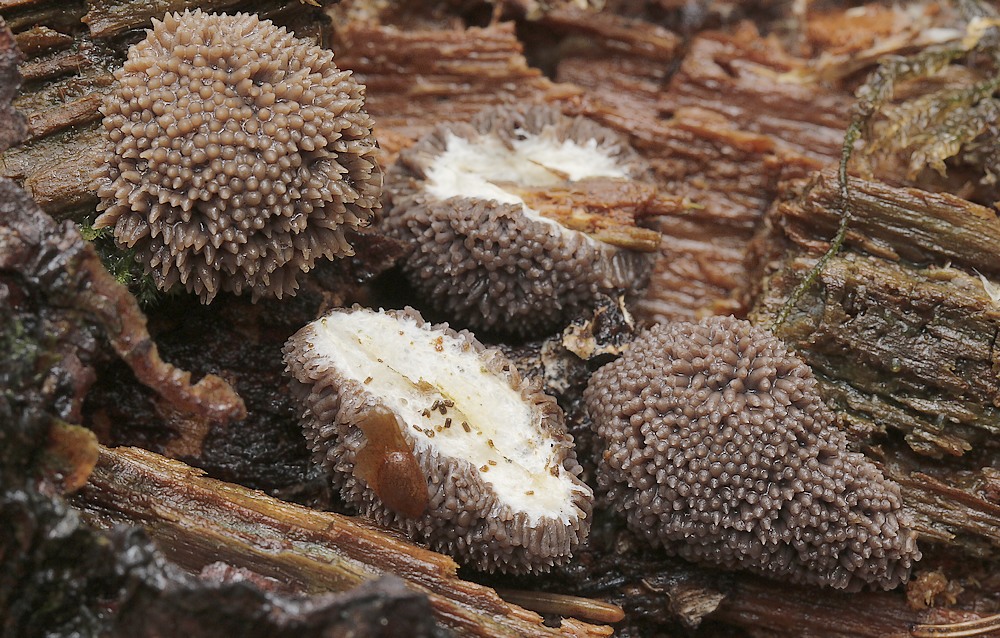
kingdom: Protozoa
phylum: Mycetozoa
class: Myxomycetes
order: Cribrariales
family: Tubiferaceae
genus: Tubifera
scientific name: Tubifera ferruginosa
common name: Red raspberry slime mold
